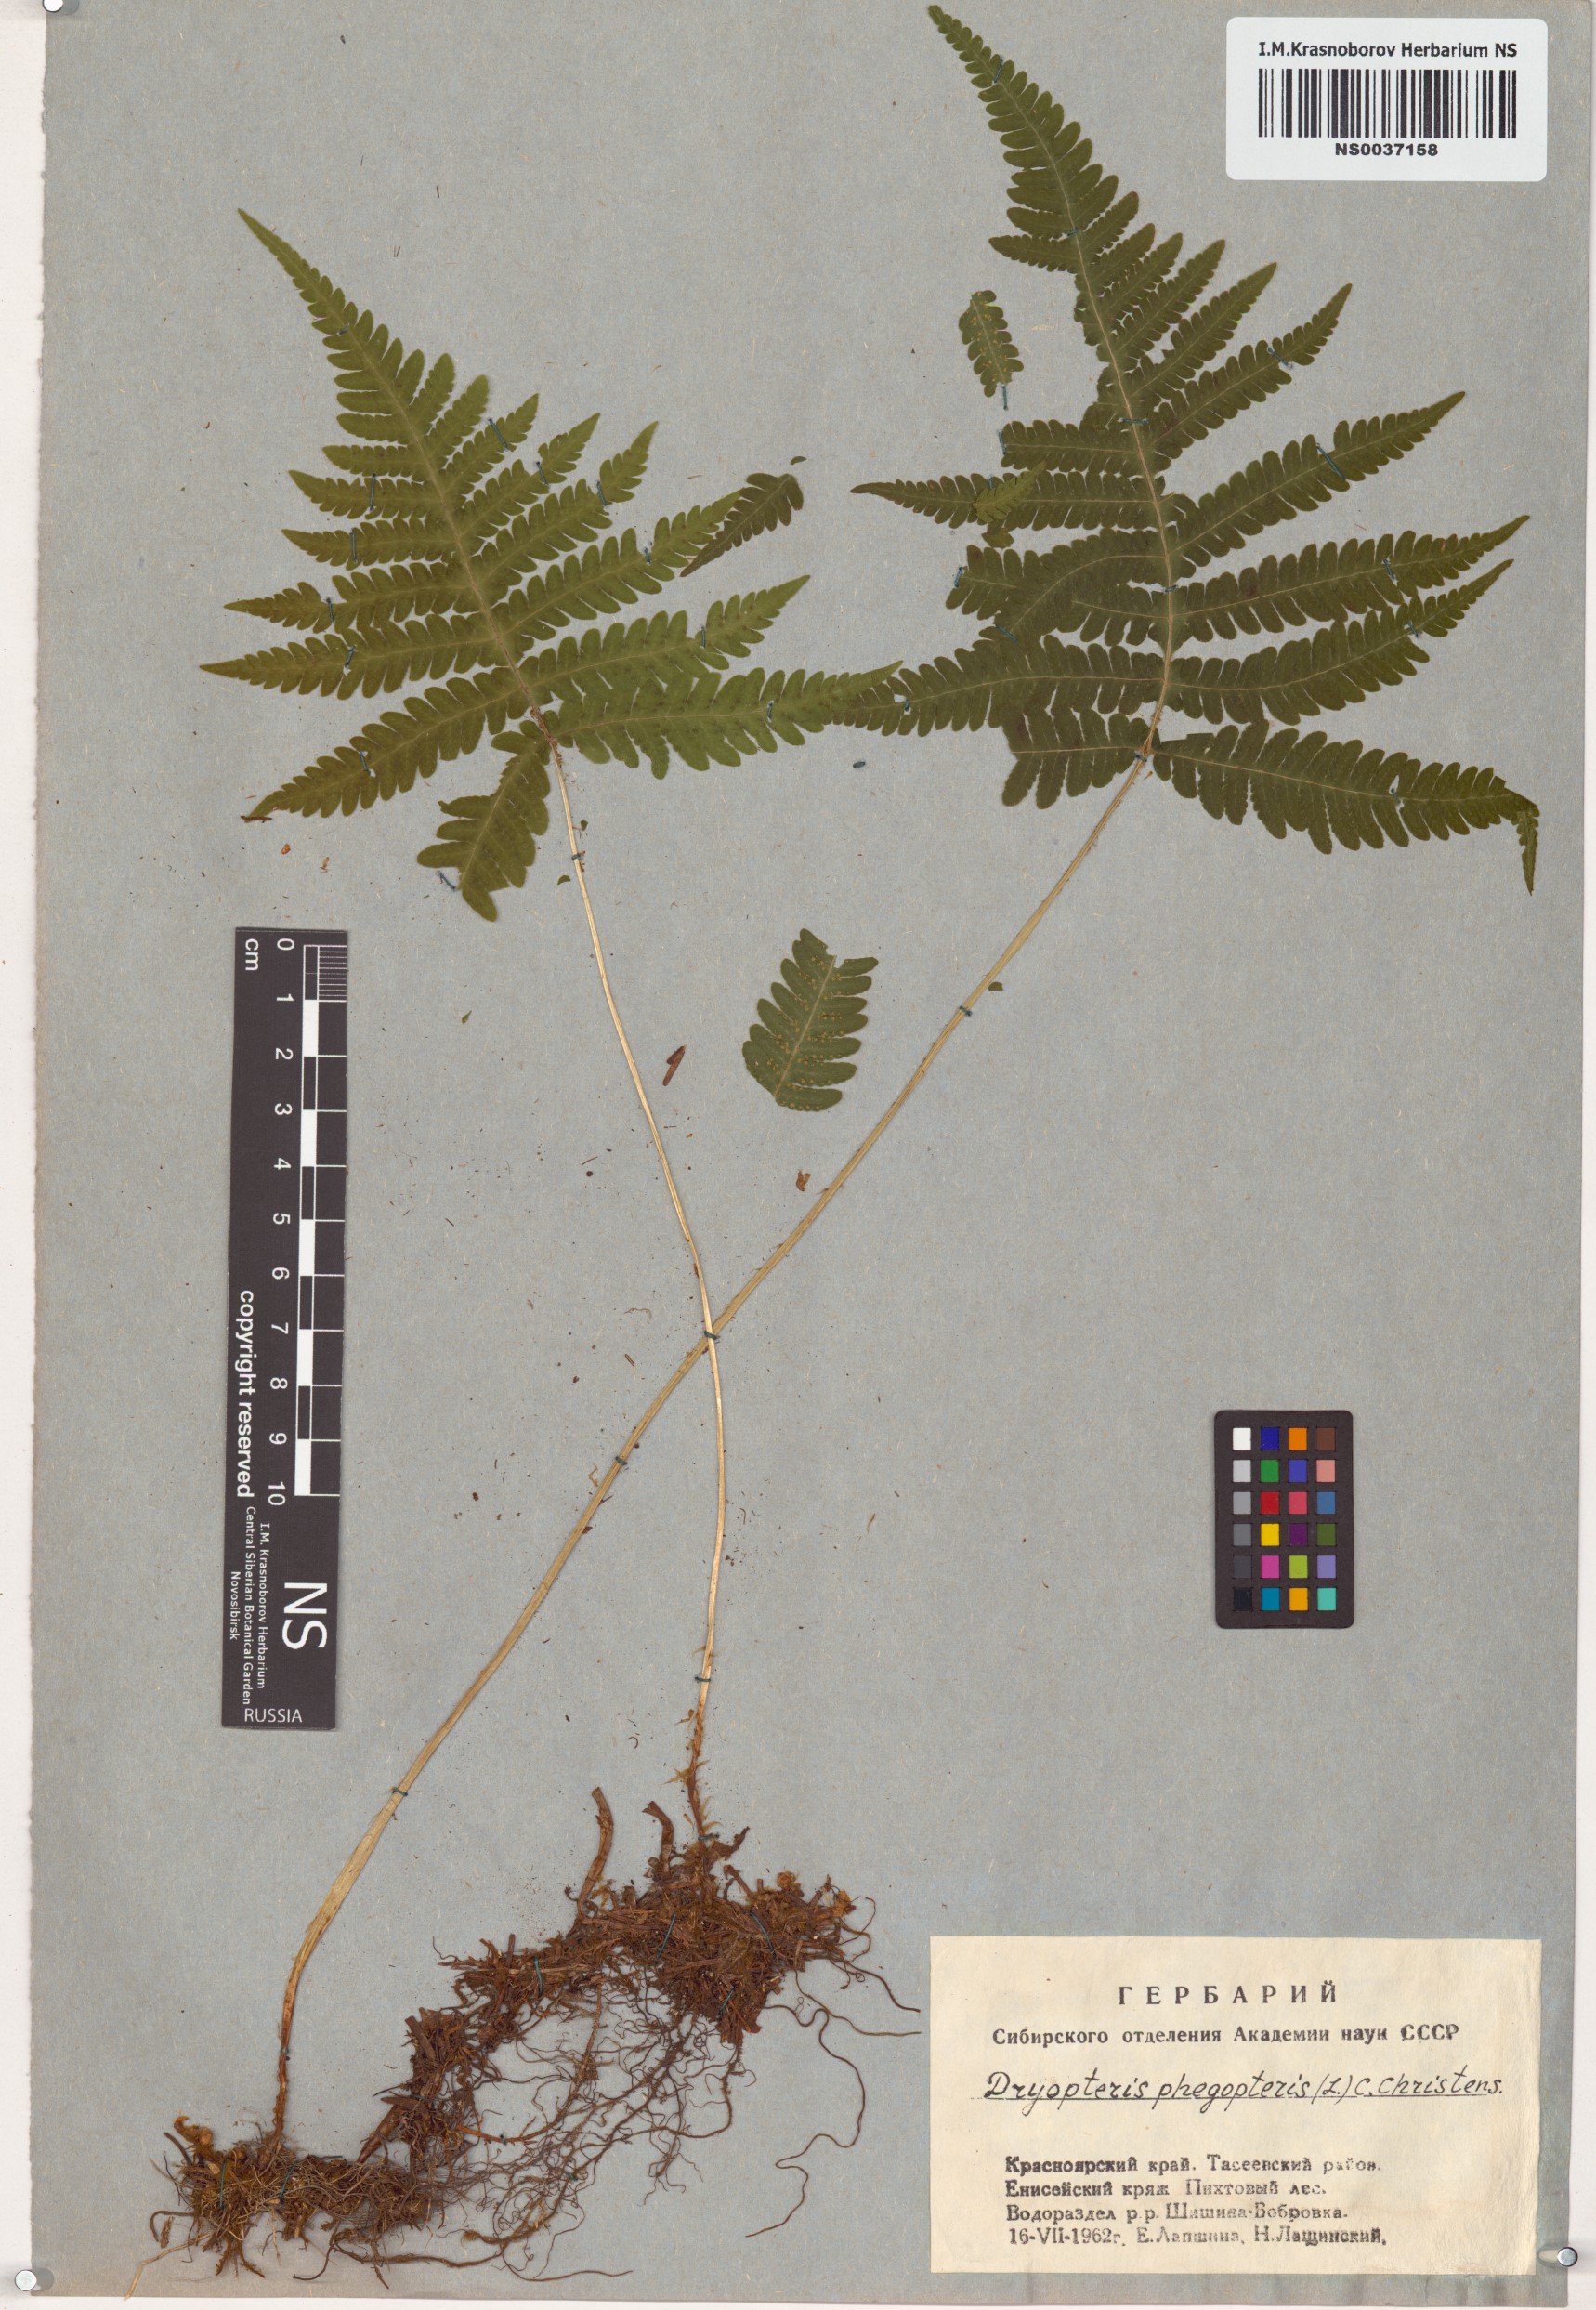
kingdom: Plantae
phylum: Tracheophyta
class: Polypodiopsida
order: Polypodiales
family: Thelypteridaceae
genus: Phegopteris
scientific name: Phegopteris connectilis
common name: Beech fern
